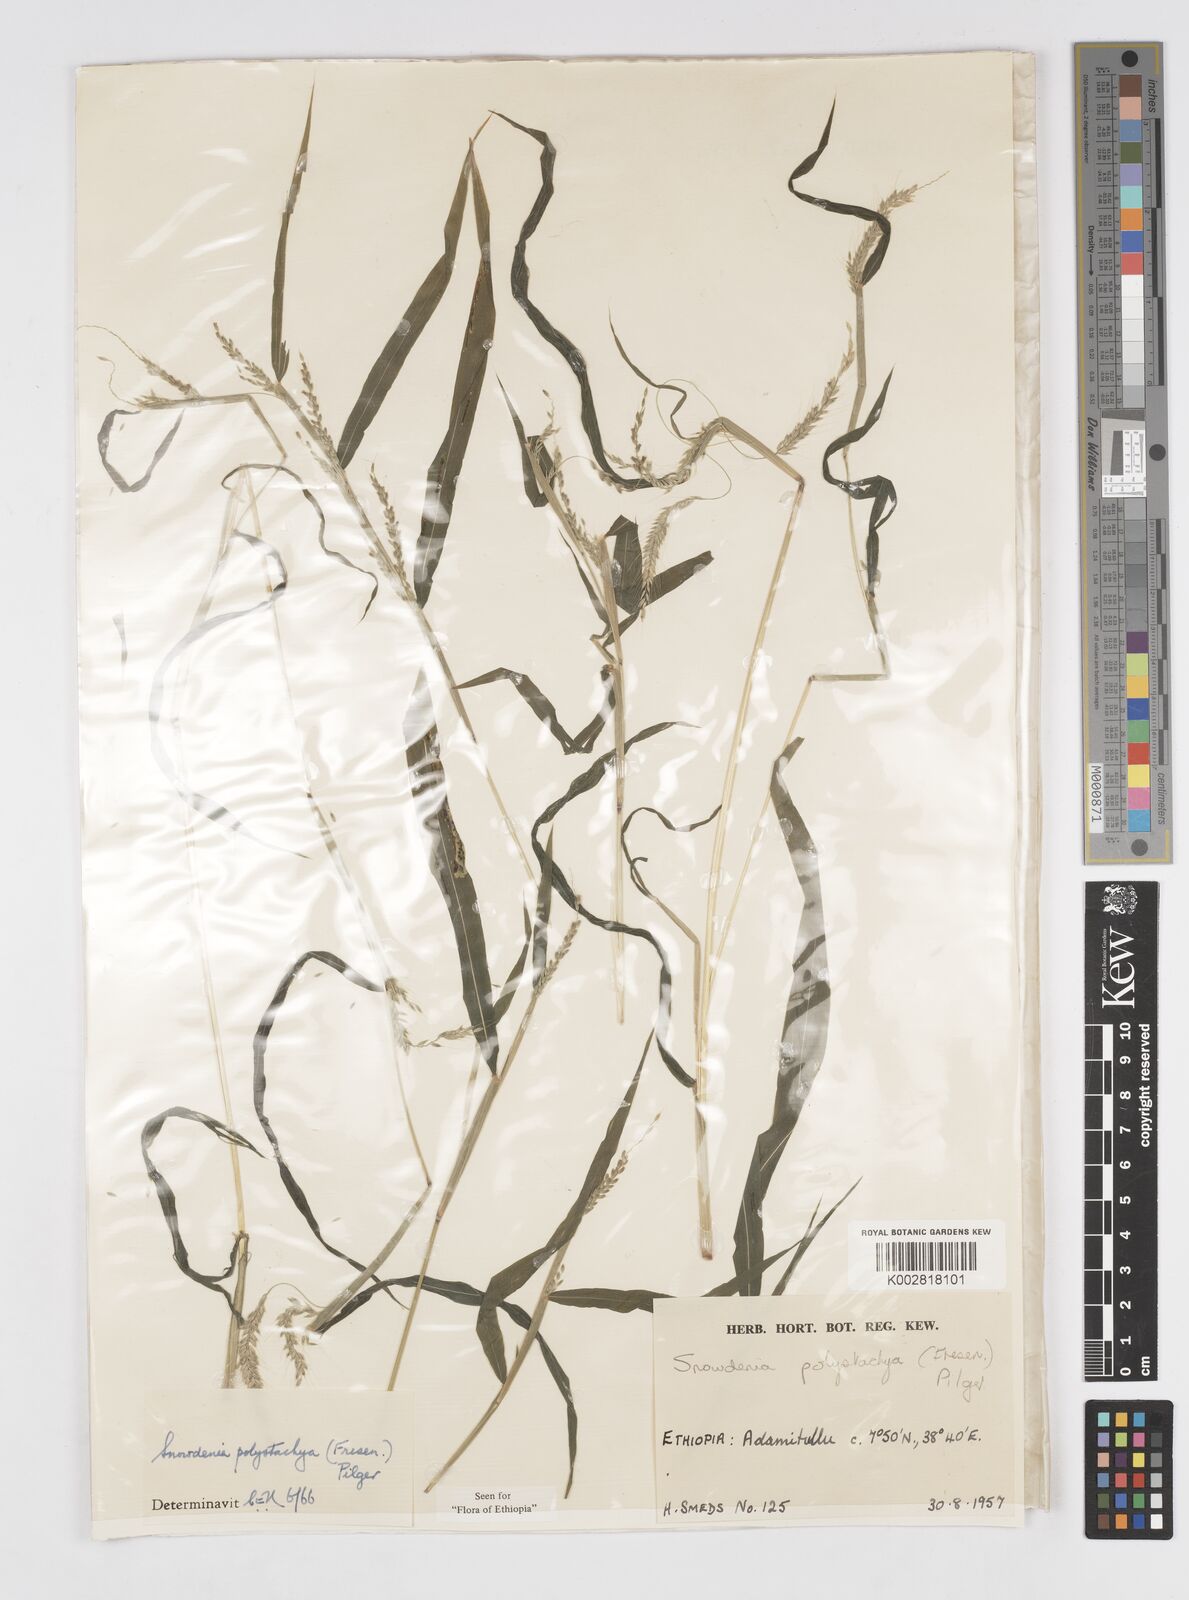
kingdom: Plantae
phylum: Tracheophyta
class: Liliopsida
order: Poales
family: Poaceae
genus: Snowdenia
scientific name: Snowdenia polystachya
